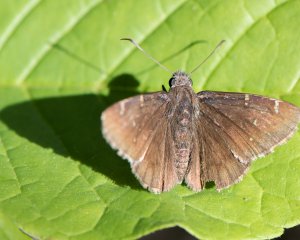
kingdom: Animalia
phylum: Arthropoda
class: Insecta
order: Lepidoptera
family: Hesperiidae
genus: Autochton
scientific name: Autochton
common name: Northern Cloudywing
